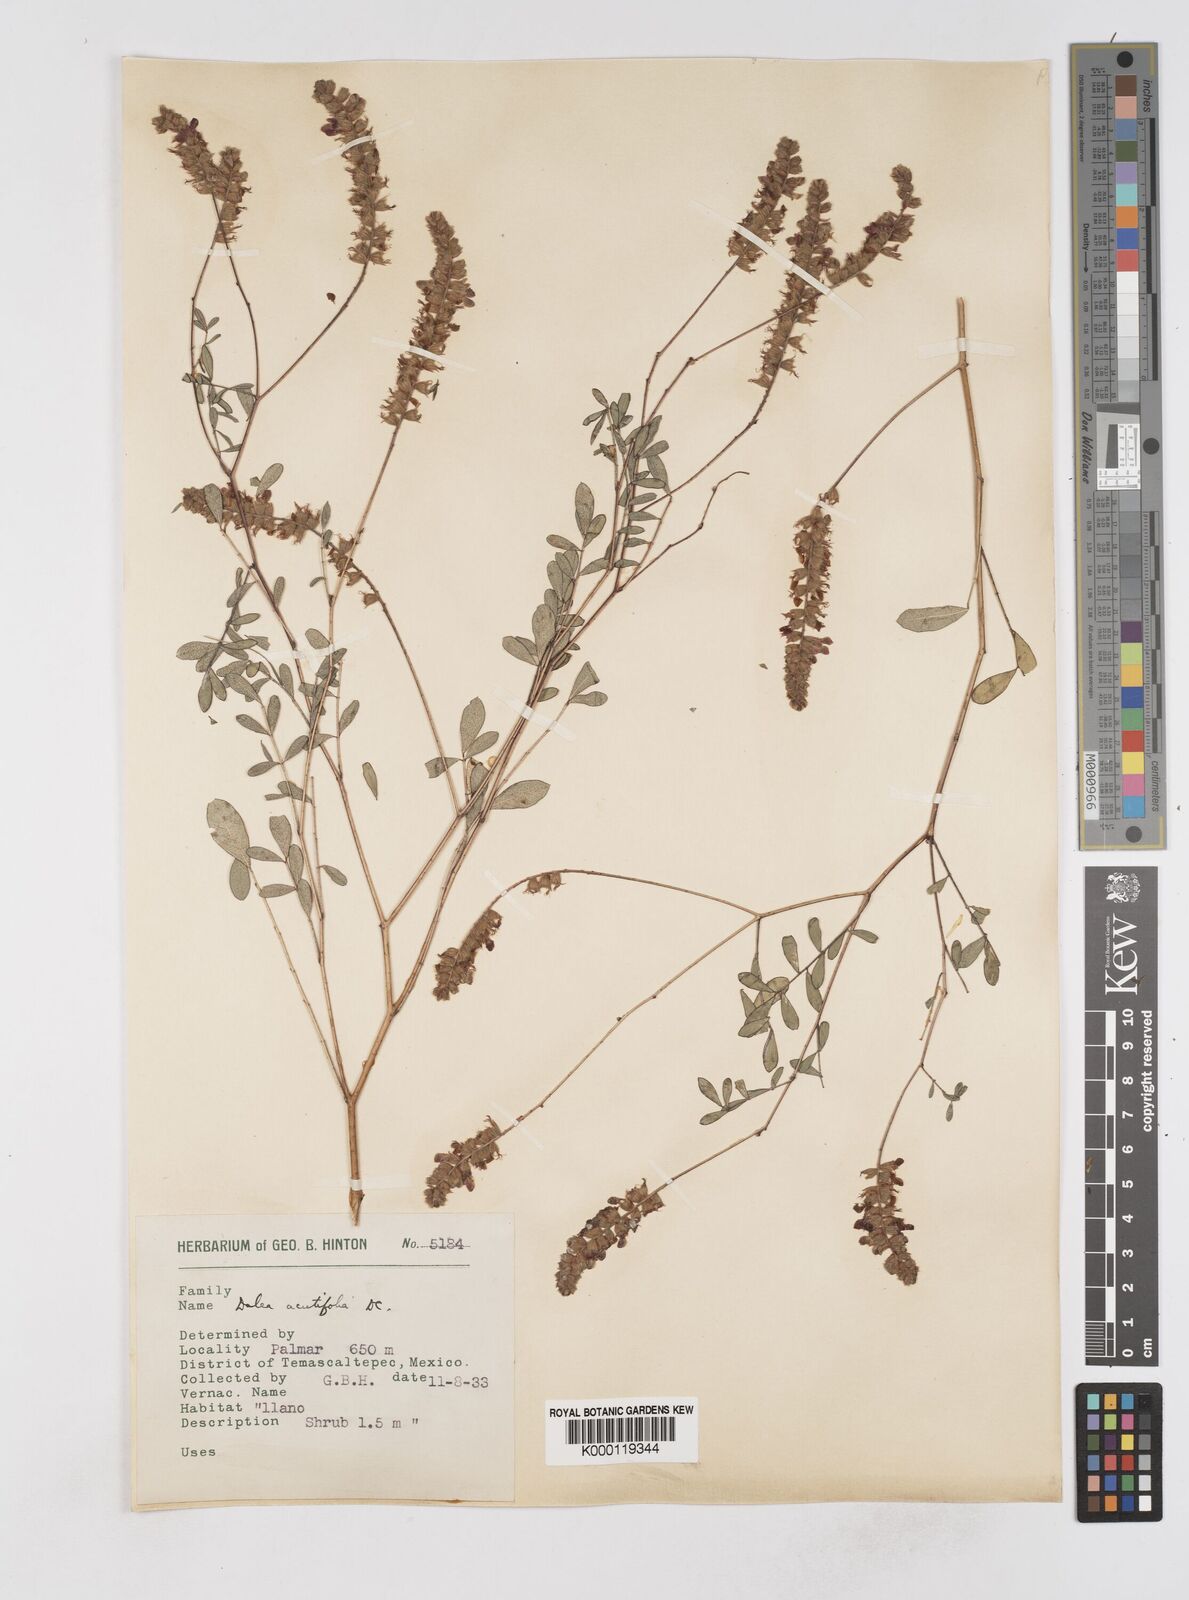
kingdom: Plantae
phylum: Tracheophyta
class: Magnoliopsida
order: Fabales
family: Fabaceae
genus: Dalea
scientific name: Dalea cliffortiana
